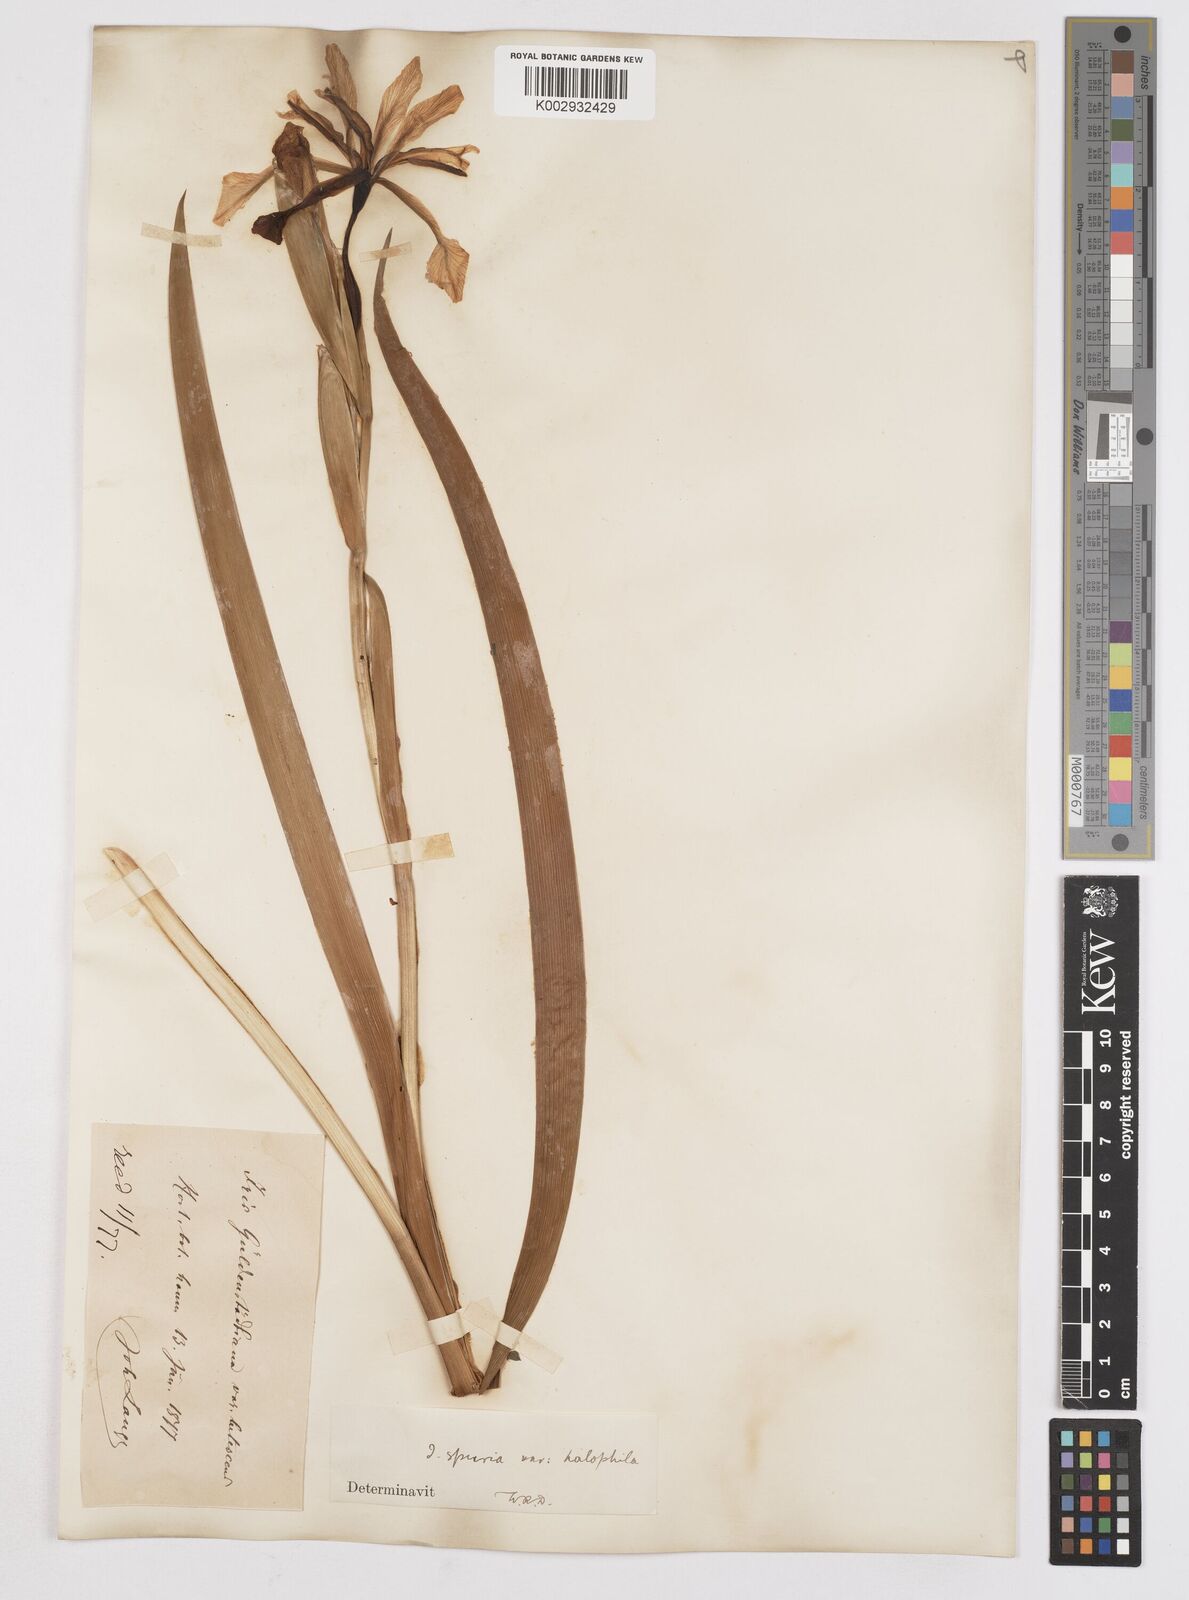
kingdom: Plantae
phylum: Tracheophyta
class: Liliopsida
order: Asparagales
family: Iridaceae
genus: Iris
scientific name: Iris halophila
